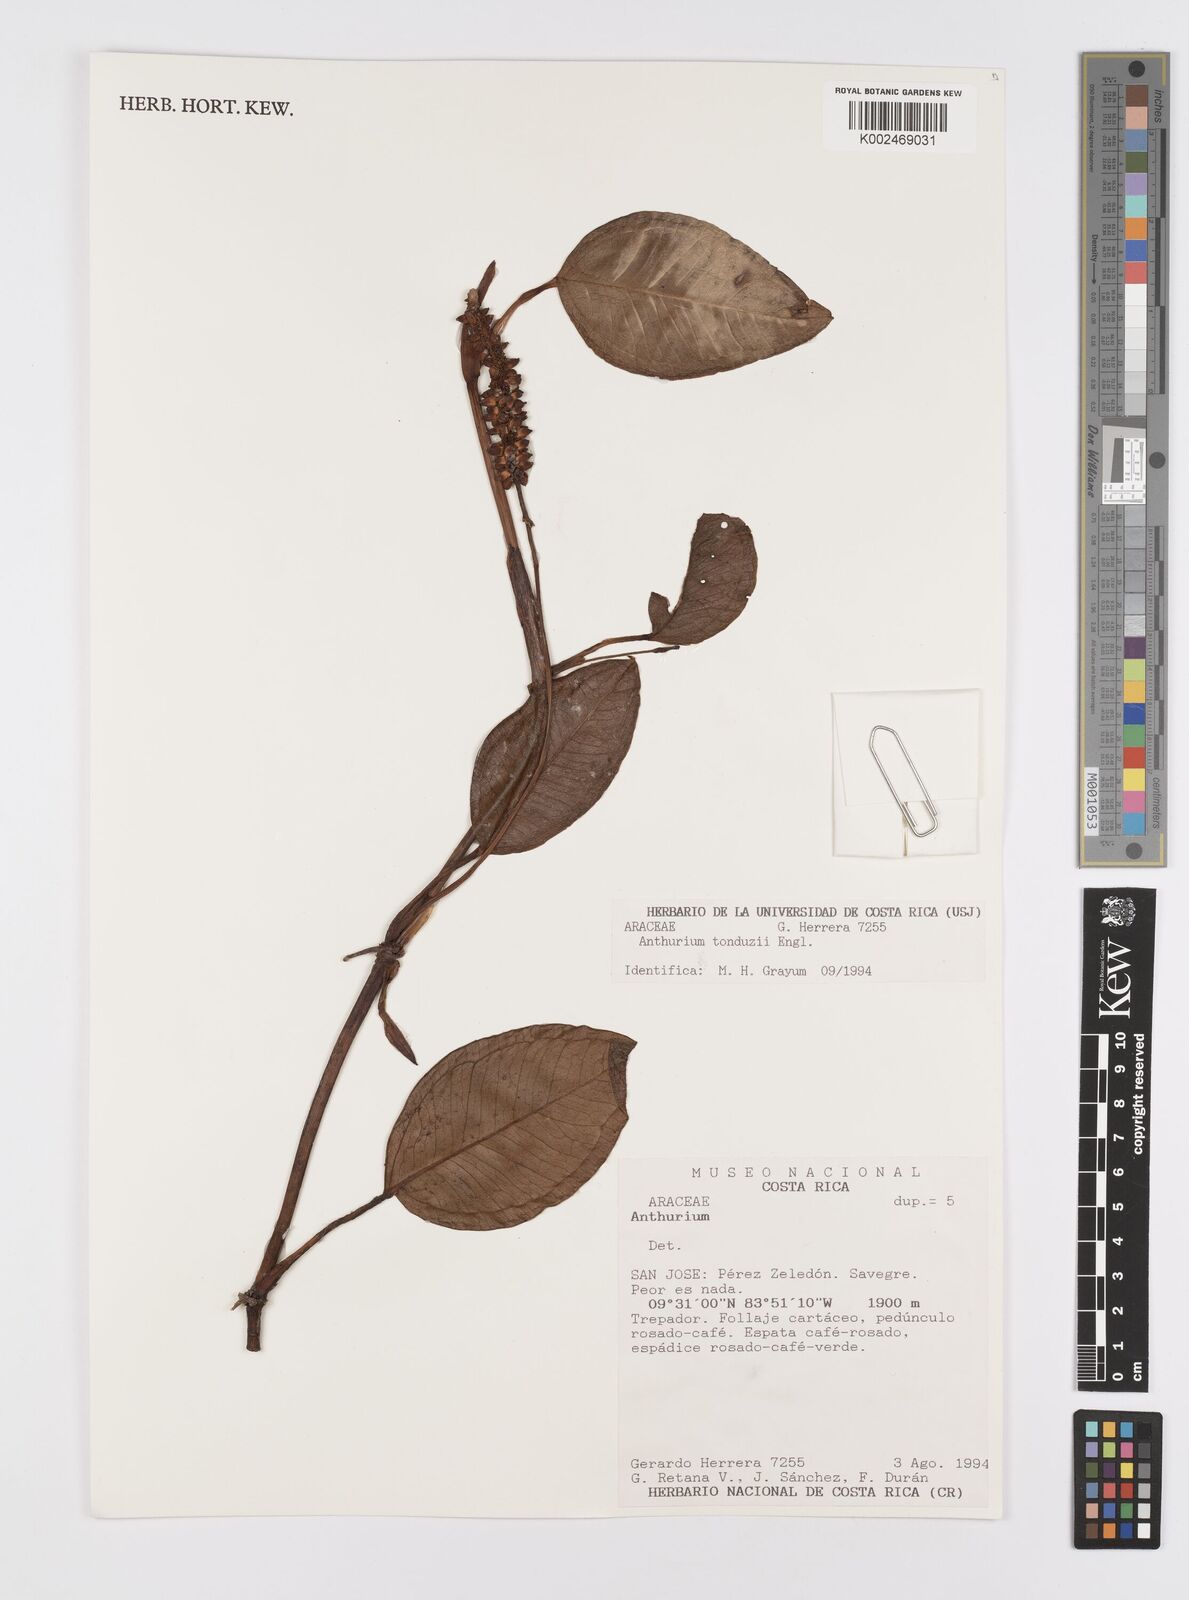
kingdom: Plantae
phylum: Tracheophyta
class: Liliopsida
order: Alismatales
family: Araceae
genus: Anthurium
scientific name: Anthurium tonduzii
